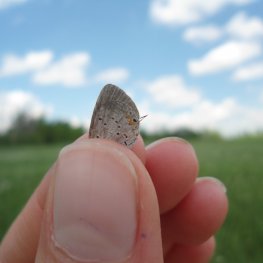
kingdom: Animalia
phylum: Arthropoda
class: Insecta
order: Lepidoptera
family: Lycaenidae
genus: Elkalyce
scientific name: Elkalyce comyntas
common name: Eastern Tailed-Blue
